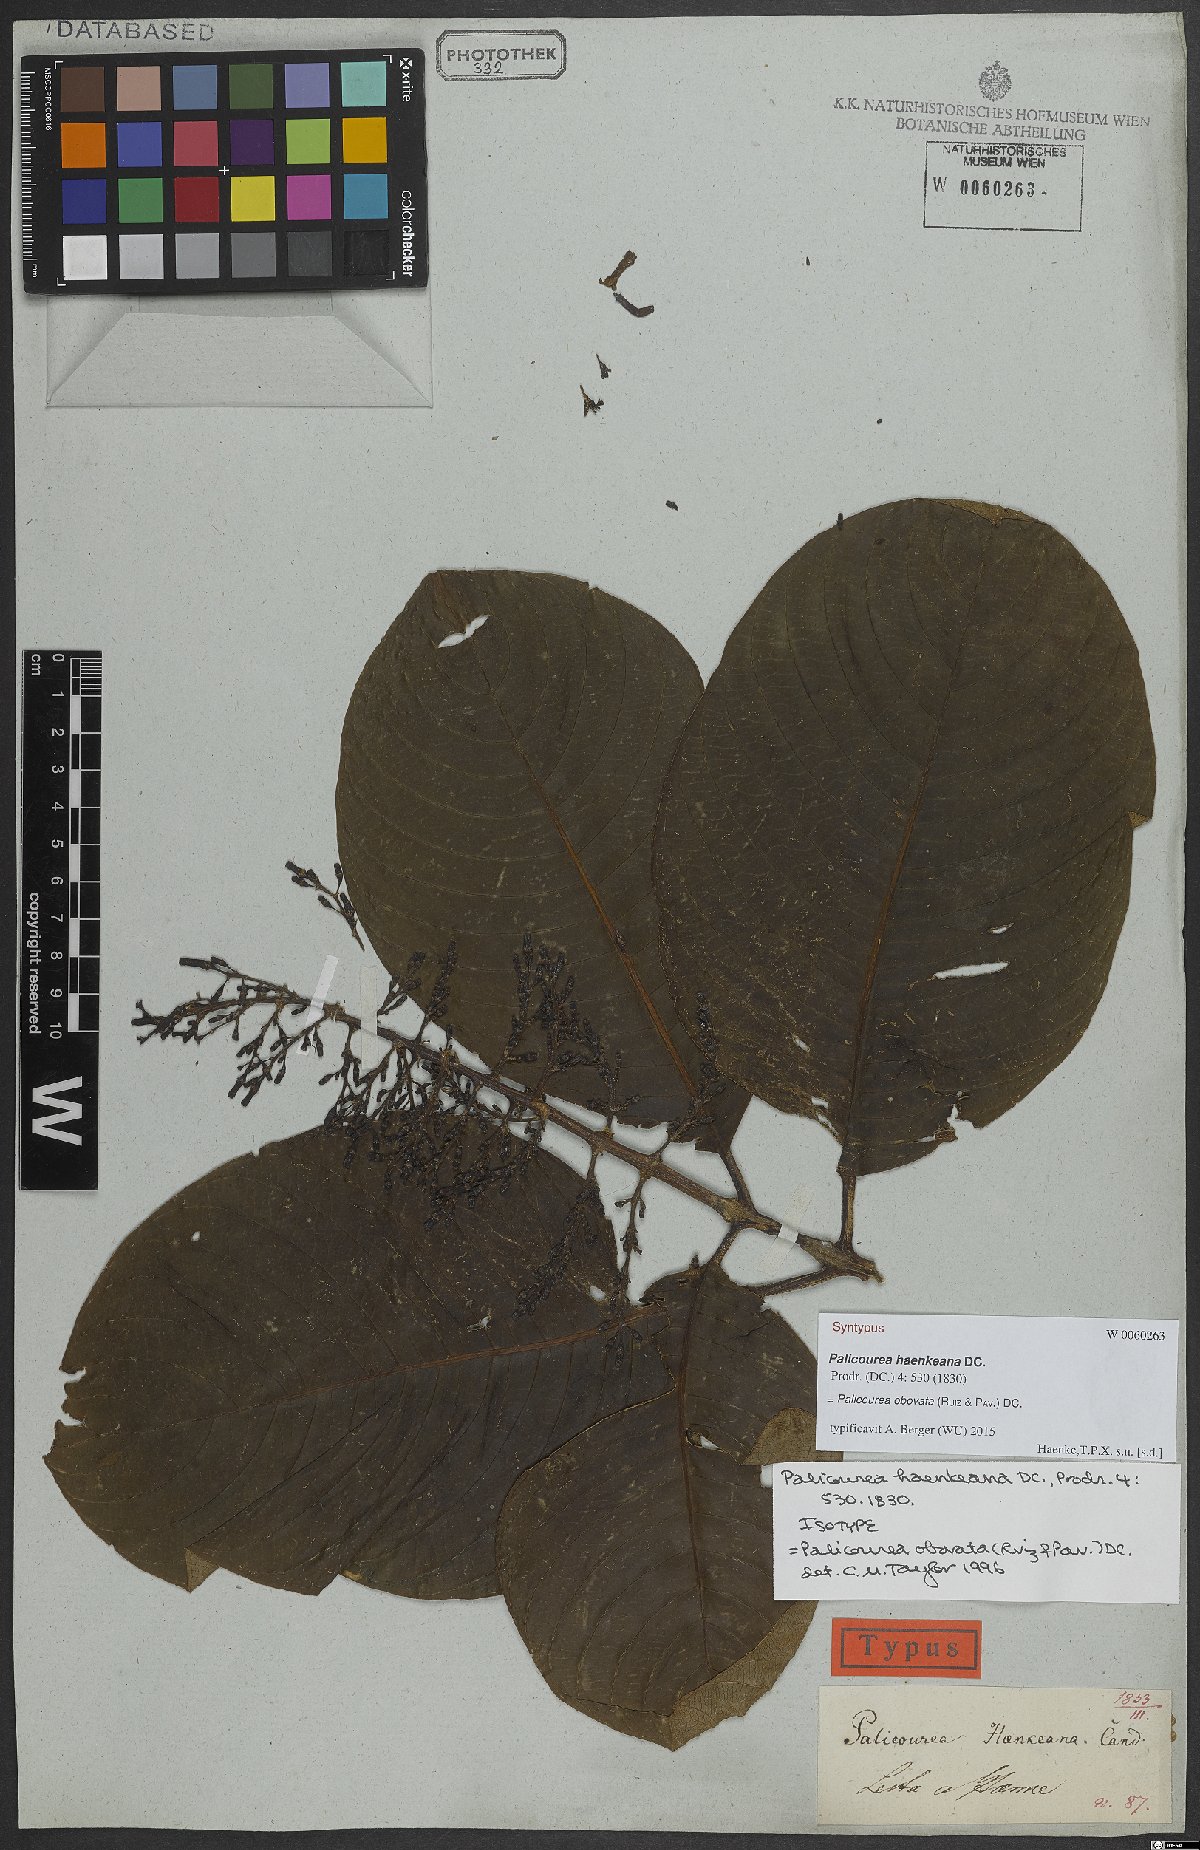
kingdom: Plantae
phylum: Tracheophyta
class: Magnoliopsida
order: Gentianales
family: Rubiaceae
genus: Palicourea
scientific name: Palicourea obovata
